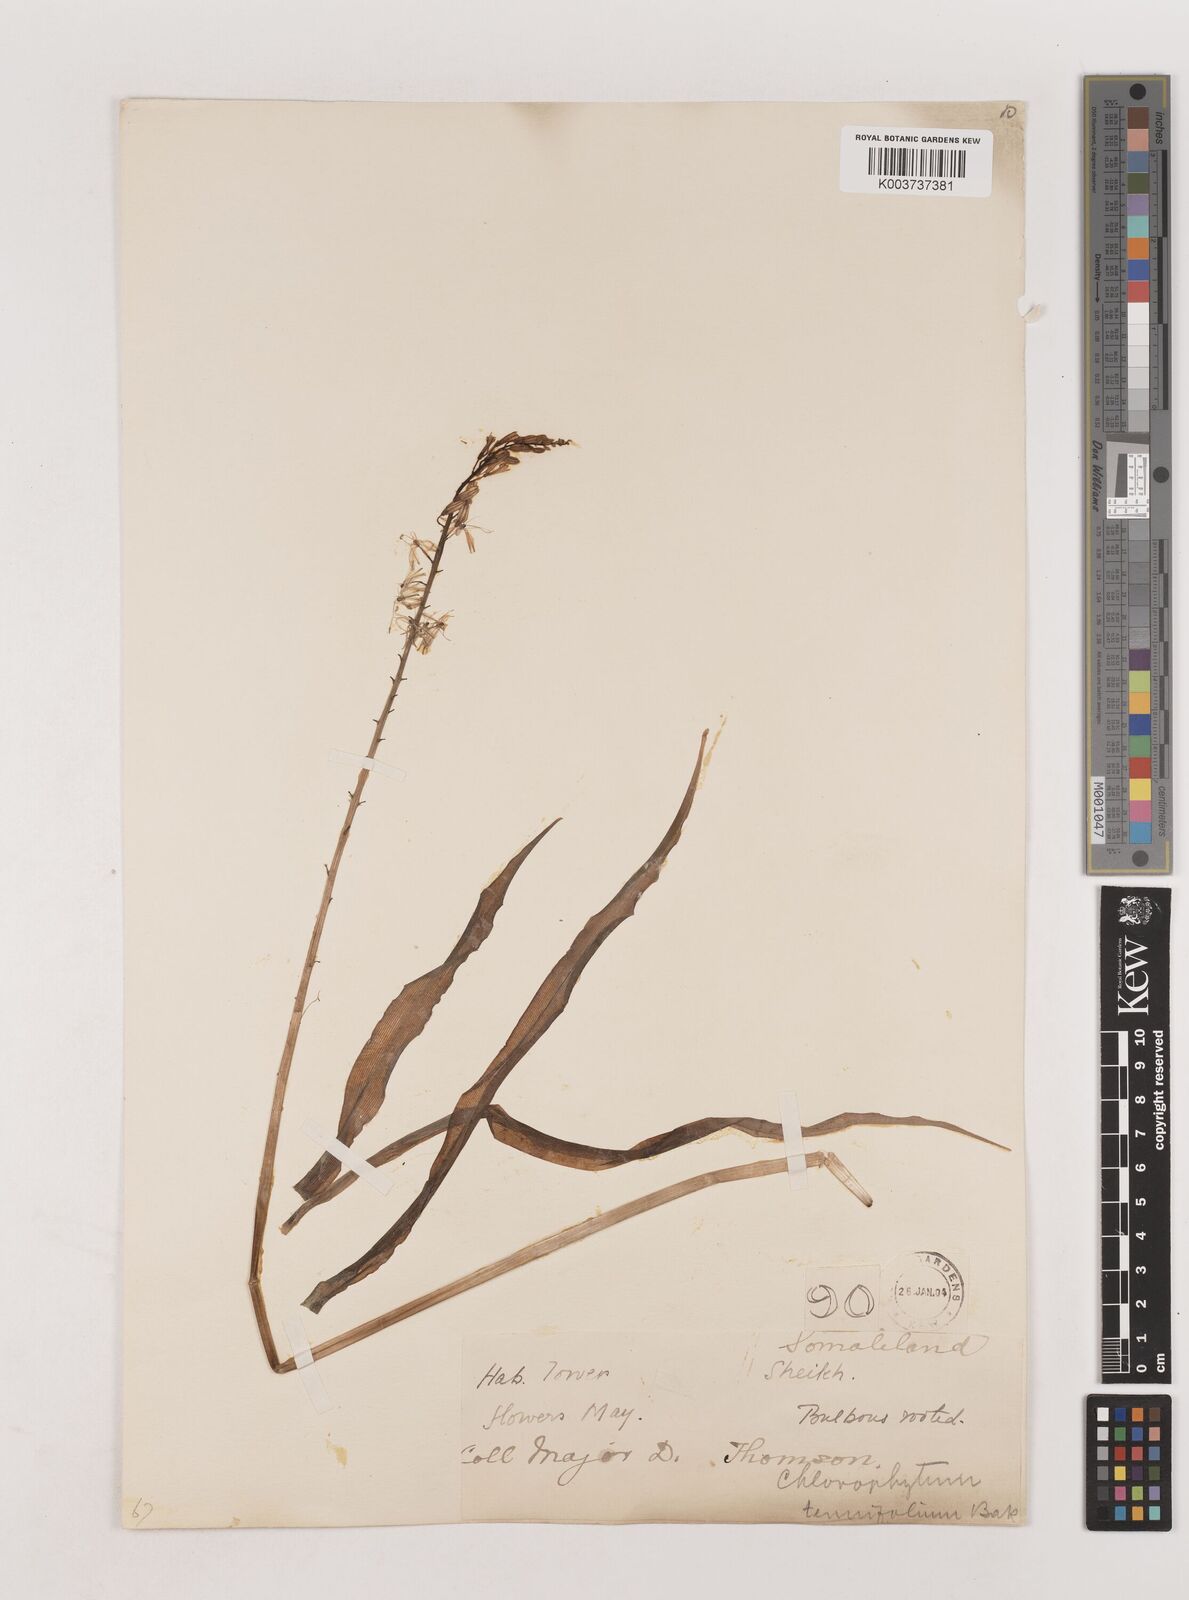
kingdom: Plantae
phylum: Tracheophyta
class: Liliopsida
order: Asparagales
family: Asparagaceae
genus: Chlorophytum
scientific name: Chlorophytum somaliense
